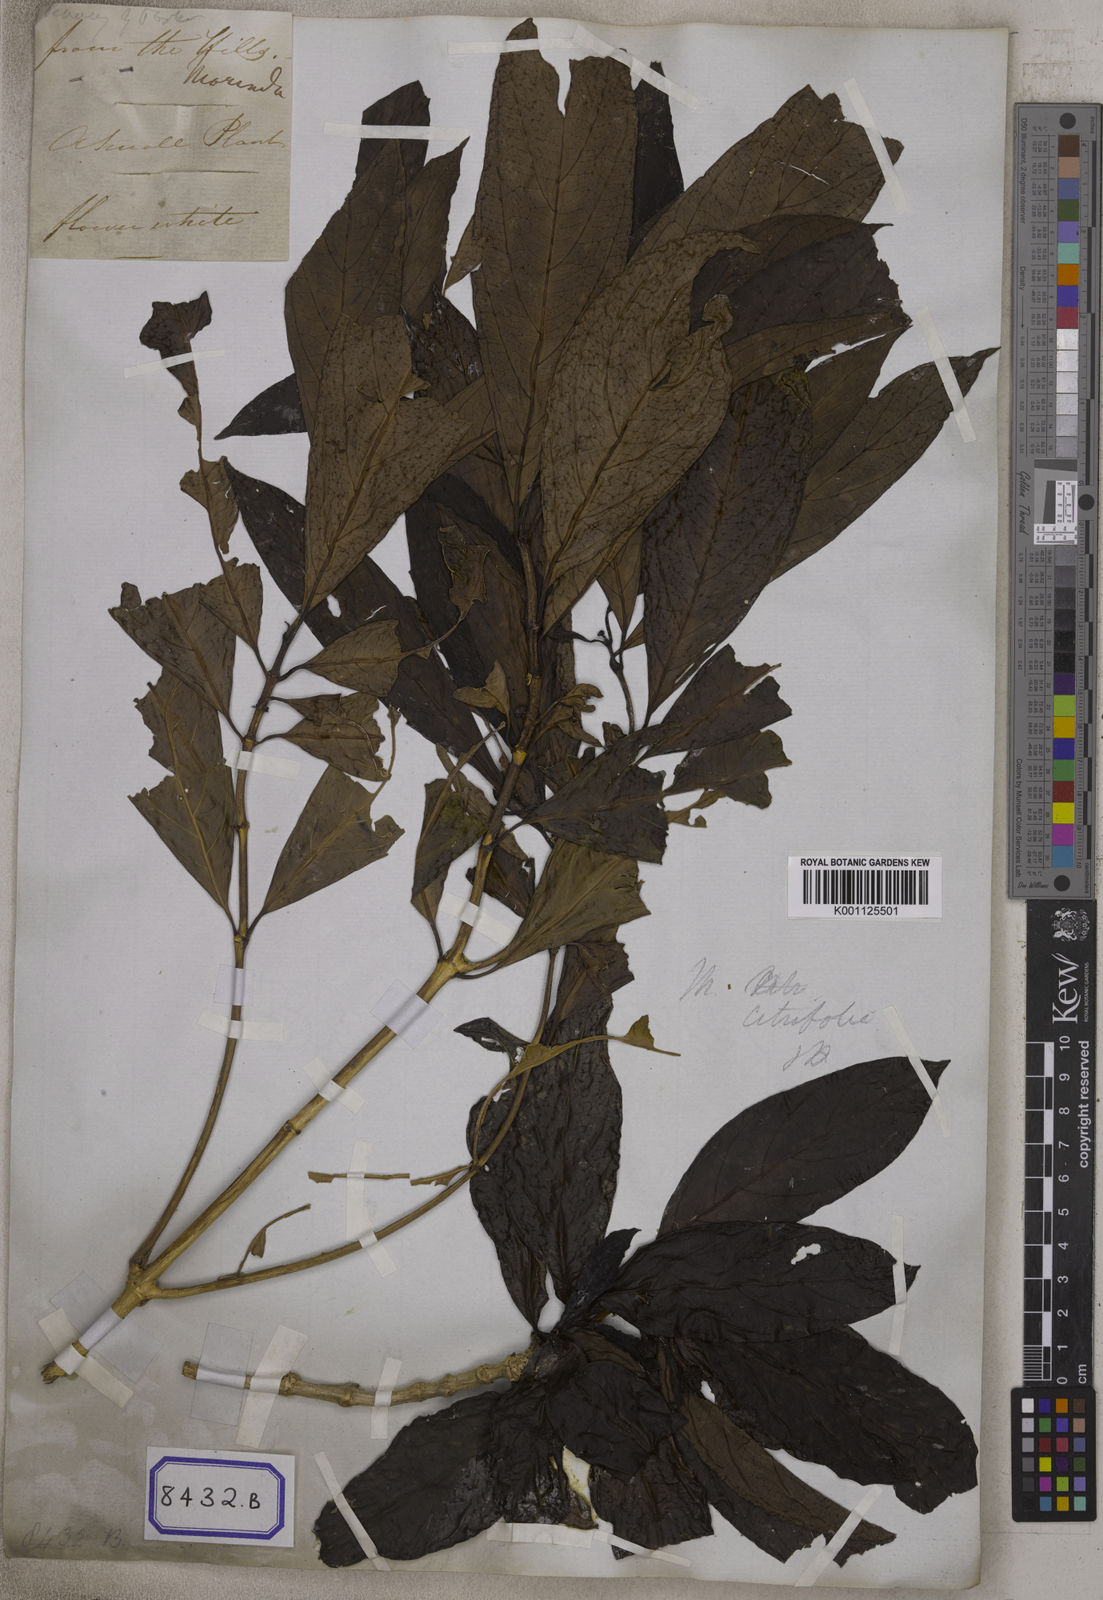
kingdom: Plantae
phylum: Tracheophyta
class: Magnoliopsida
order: Gentianales
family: Rubiaceae
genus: Gynochthodes
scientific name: Gynochthodes umbellata
